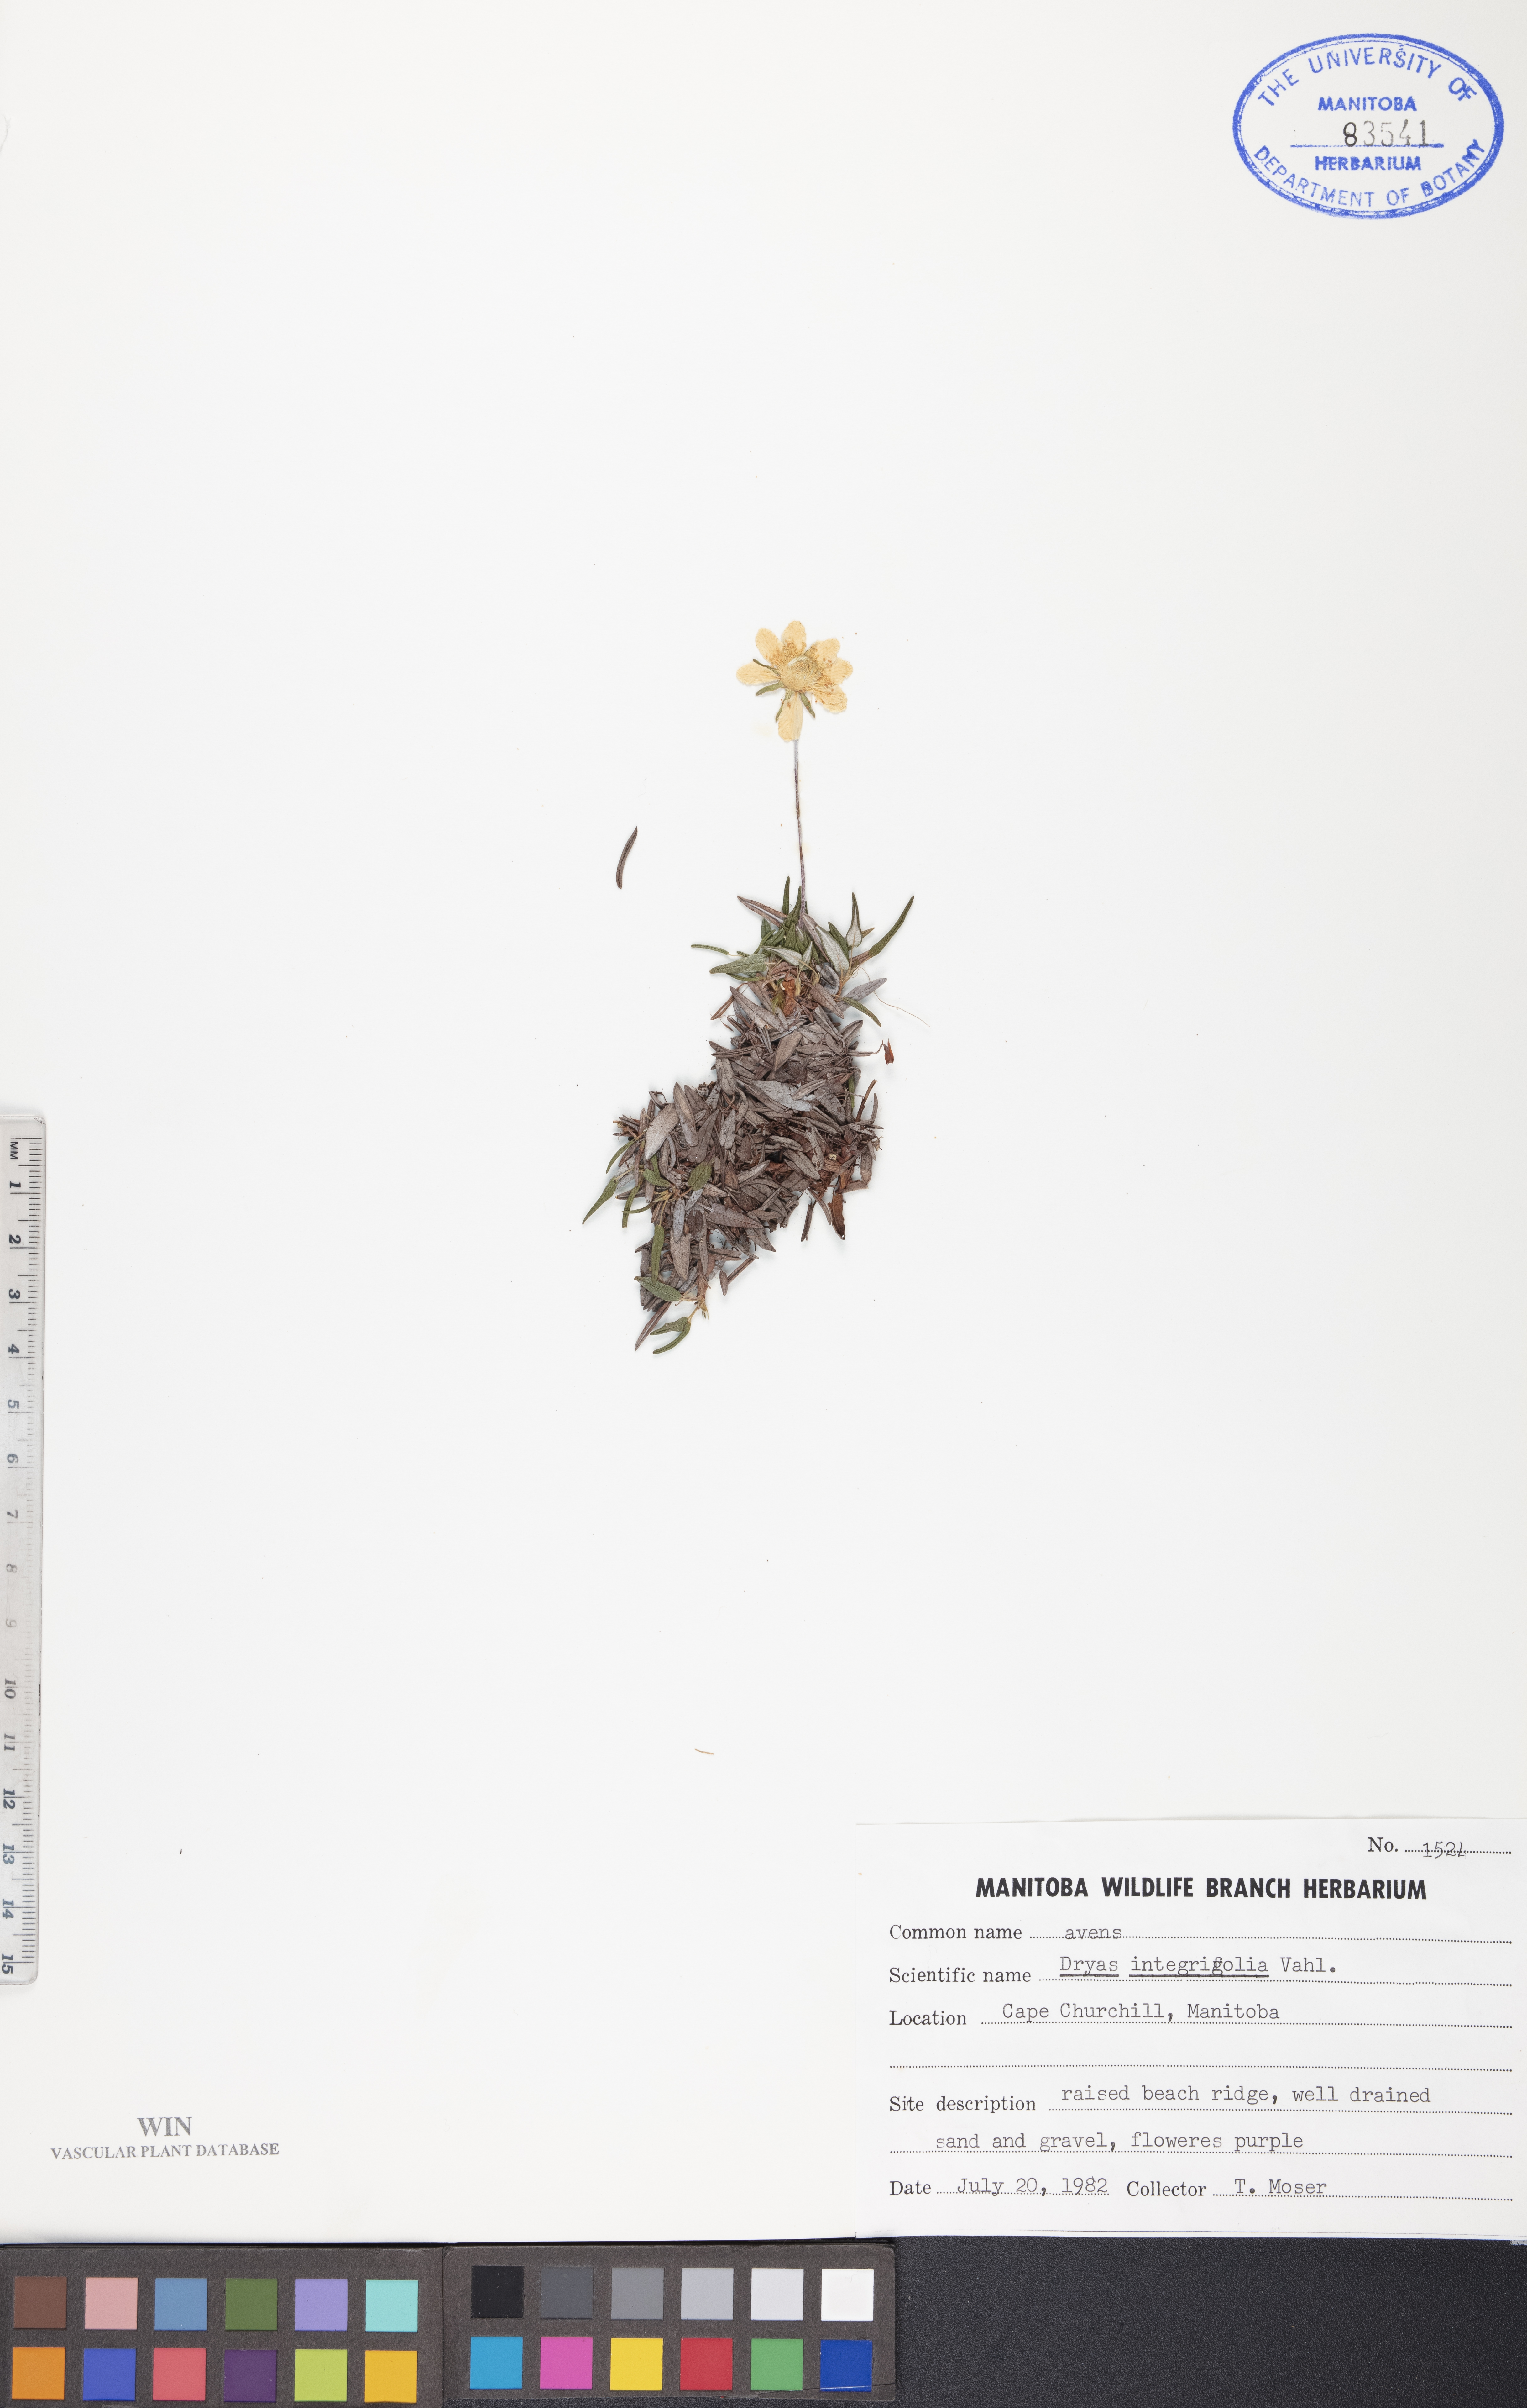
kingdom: Plantae
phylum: Tracheophyta
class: Magnoliopsida
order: Rosales
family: Rosaceae
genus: Dryas
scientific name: Dryas integrifolia
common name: Entire-leaved mountain avens
